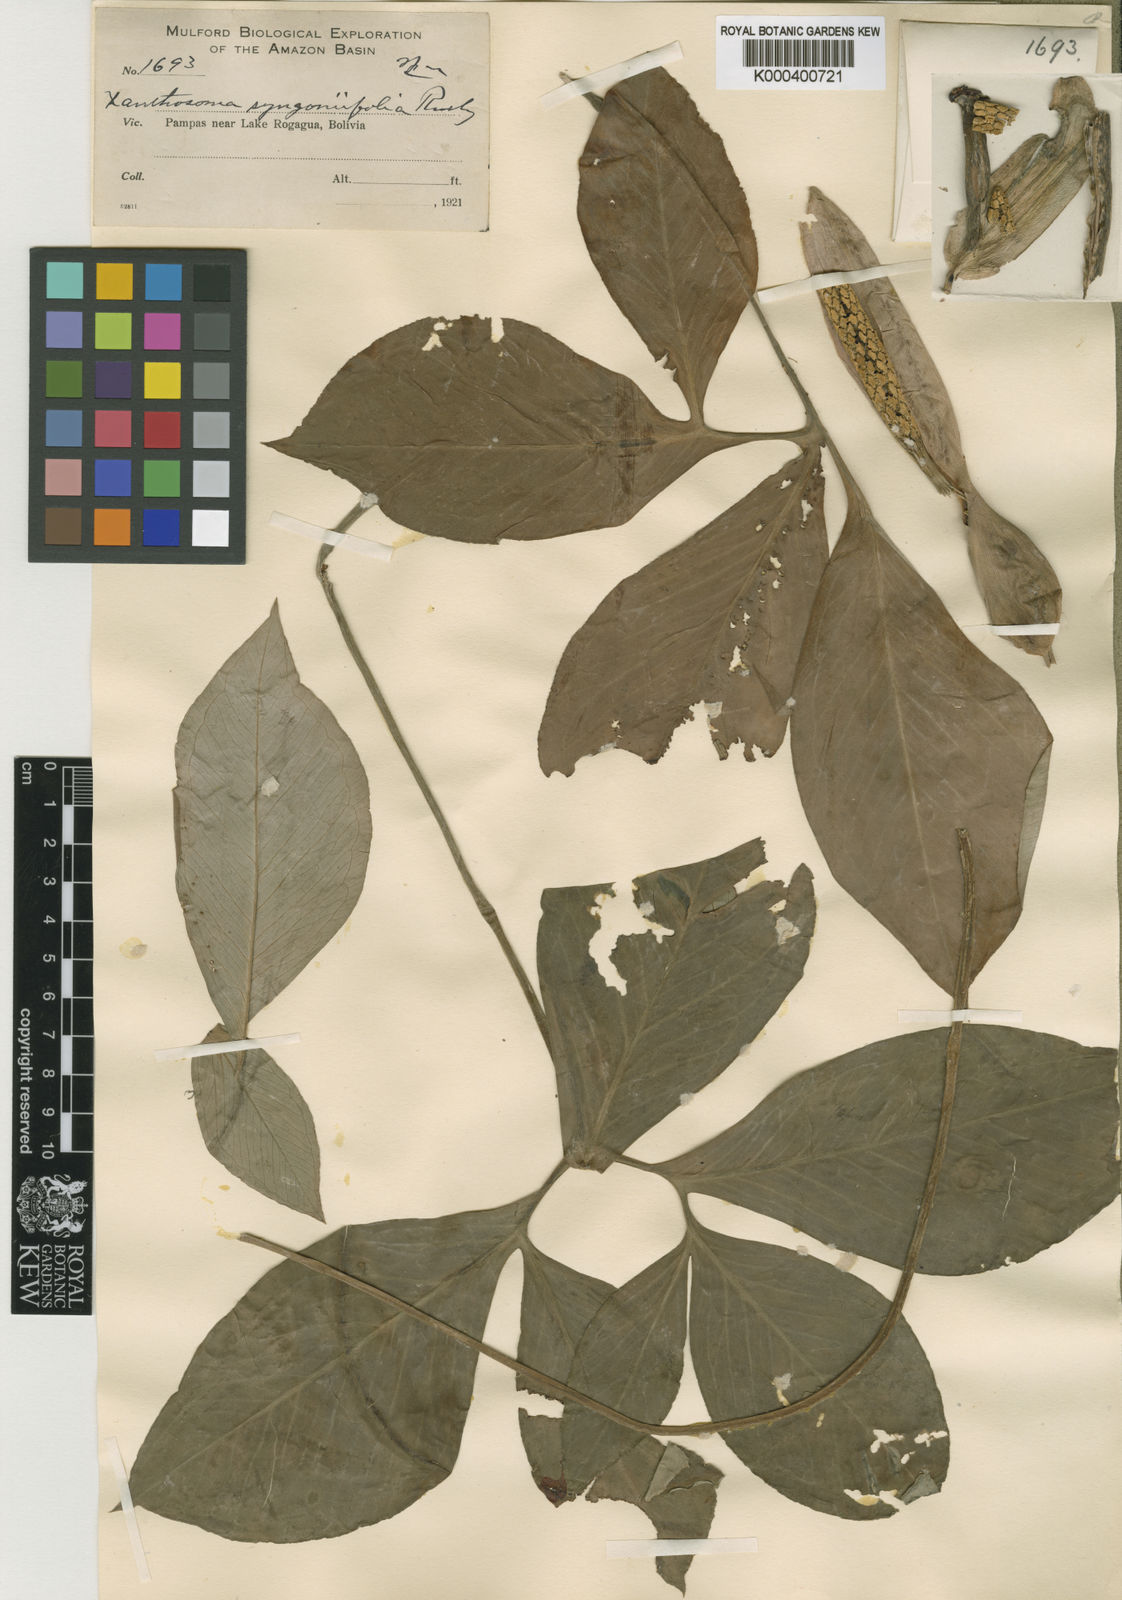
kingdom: Plantae
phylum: Tracheophyta
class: Liliopsida
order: Alismatales
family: Araceae
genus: Xanthosoma
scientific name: Xanthosoma syngoniifolium
